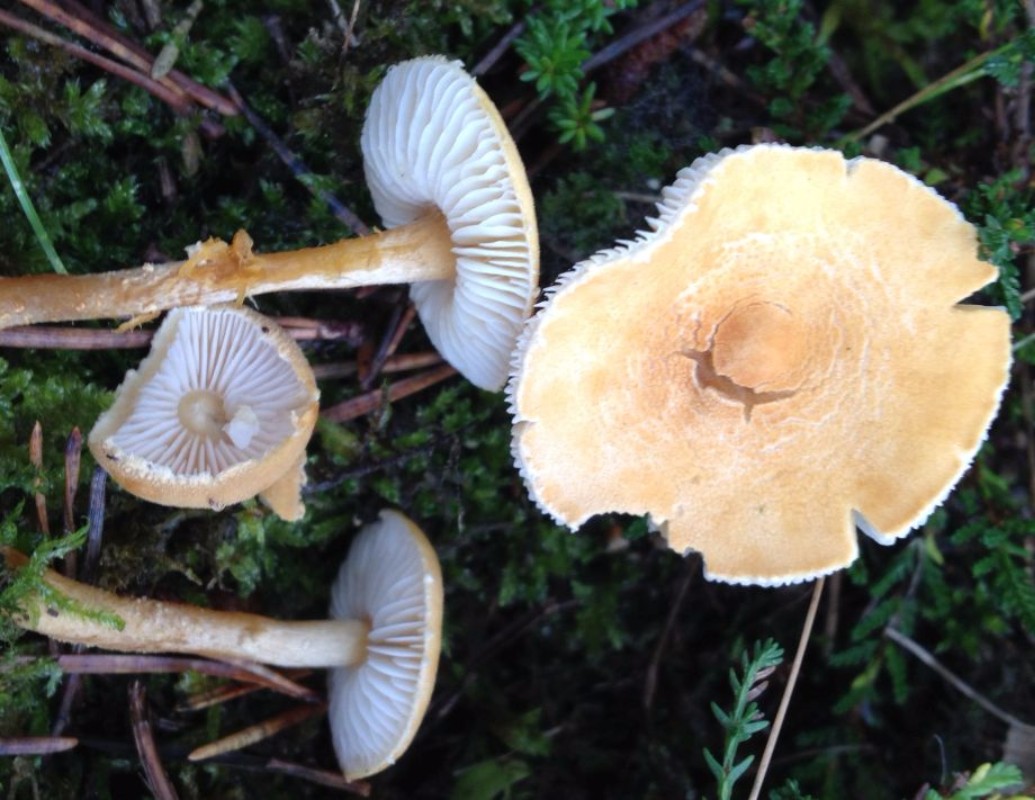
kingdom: Fungi
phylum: Basidiomycota
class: Agaricomycetes
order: Agaricales
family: Tricholomataceae
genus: Cystoderma
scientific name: Cystoderma amianthinum
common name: okkergul grynhat
